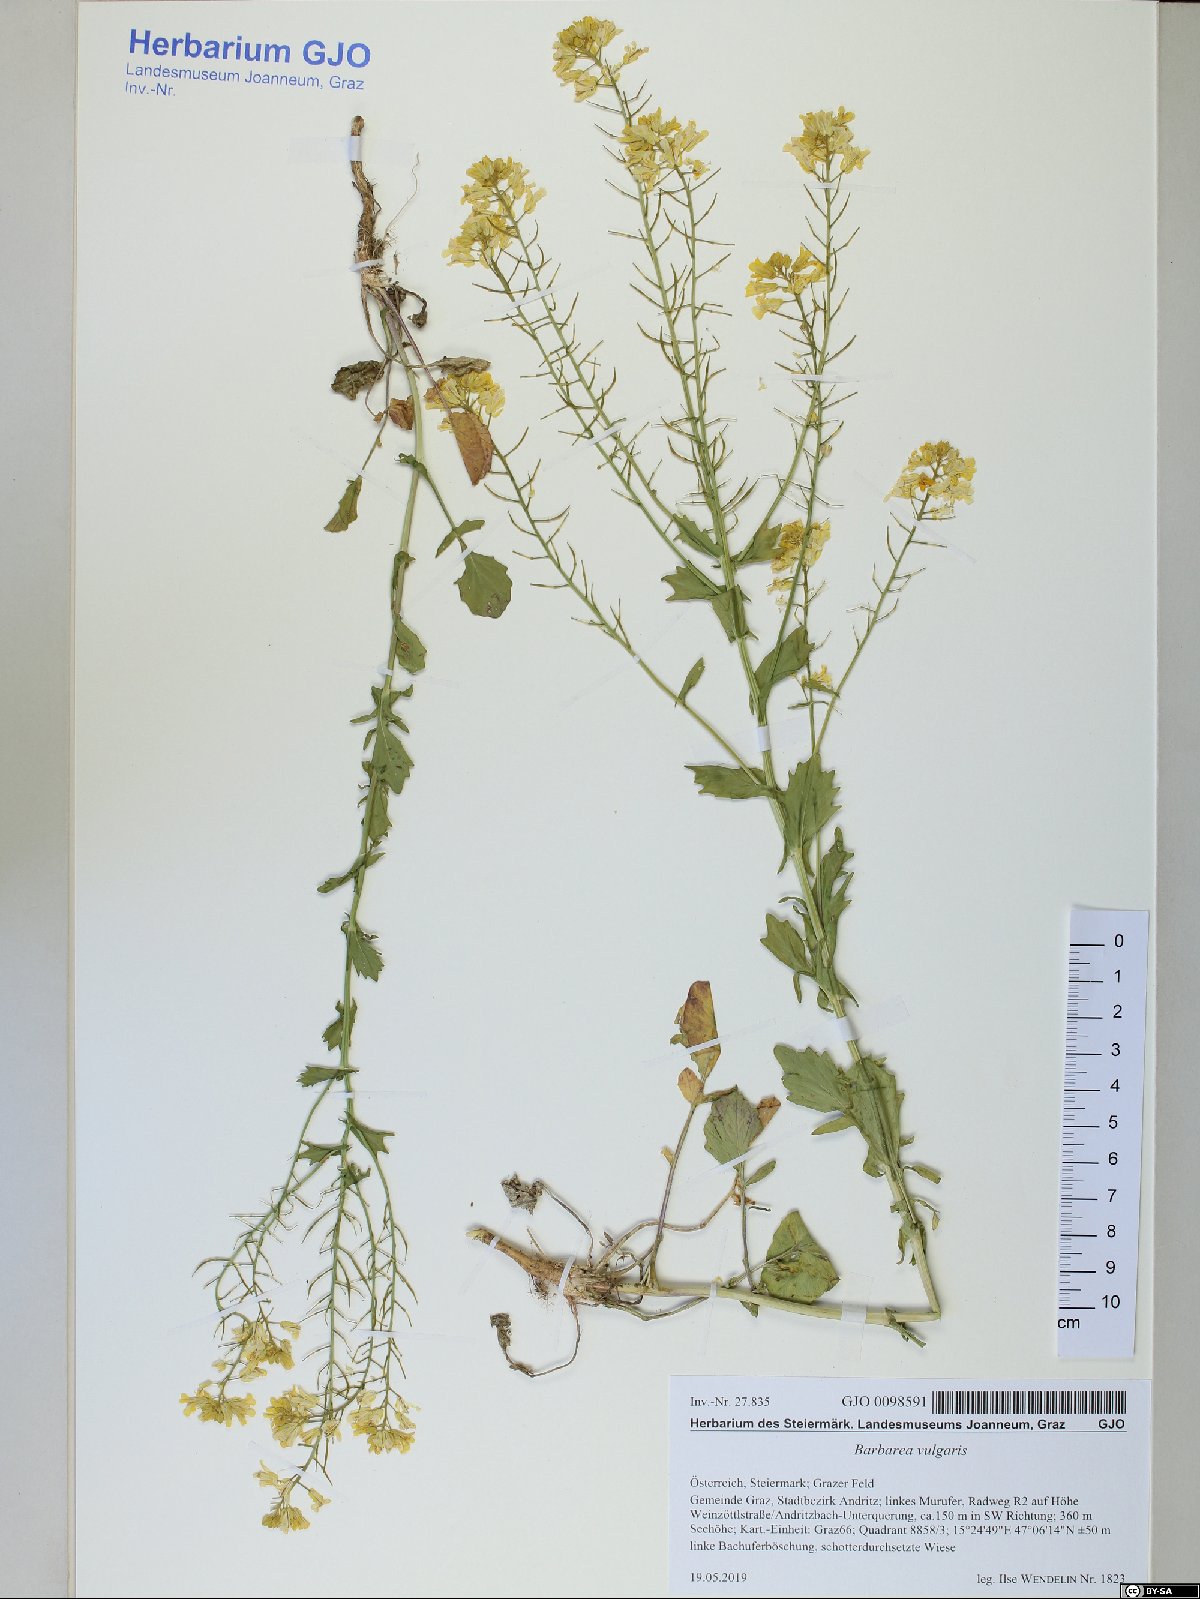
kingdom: Plantae
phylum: Tracheophyta
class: Magnoliopsida
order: Brassicales
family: Brassicaceae
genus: Barbarea
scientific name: Barbarea vulgaris
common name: Cressy-greens
